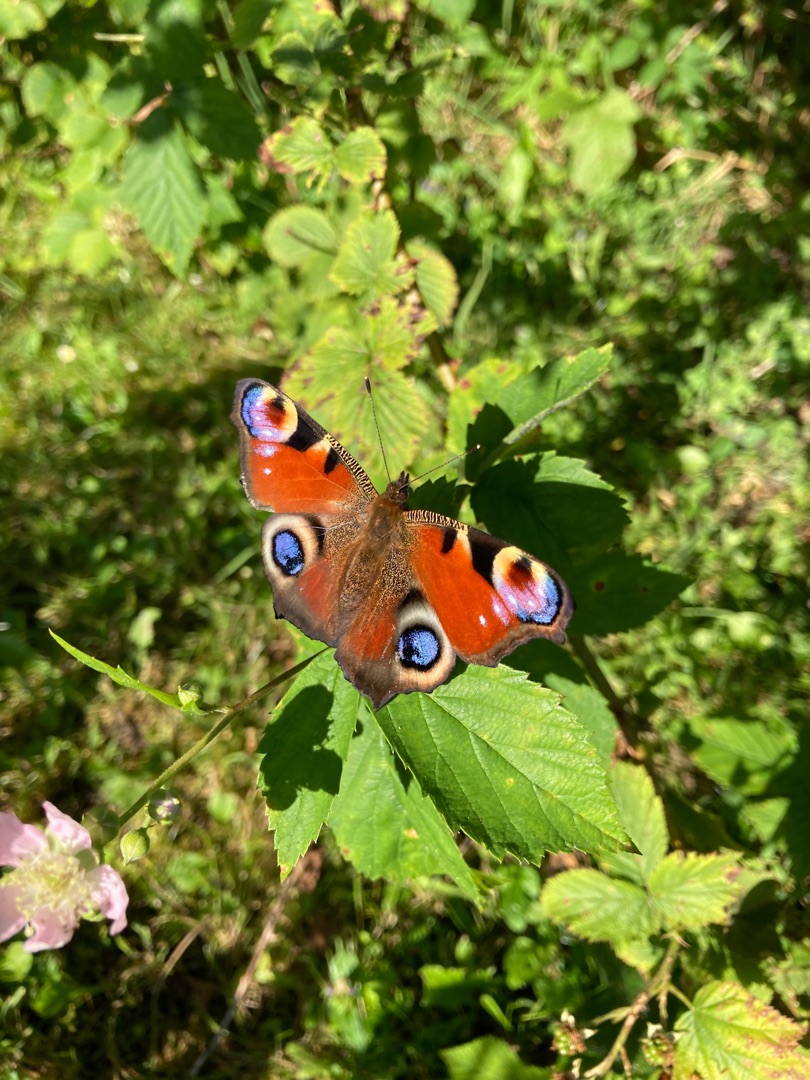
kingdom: Animalia
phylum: Arthropoda
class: Insecta
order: Lepidoptera
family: Nymphalidae
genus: Aglais
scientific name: Aglais io
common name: Dagpåfugleøje
